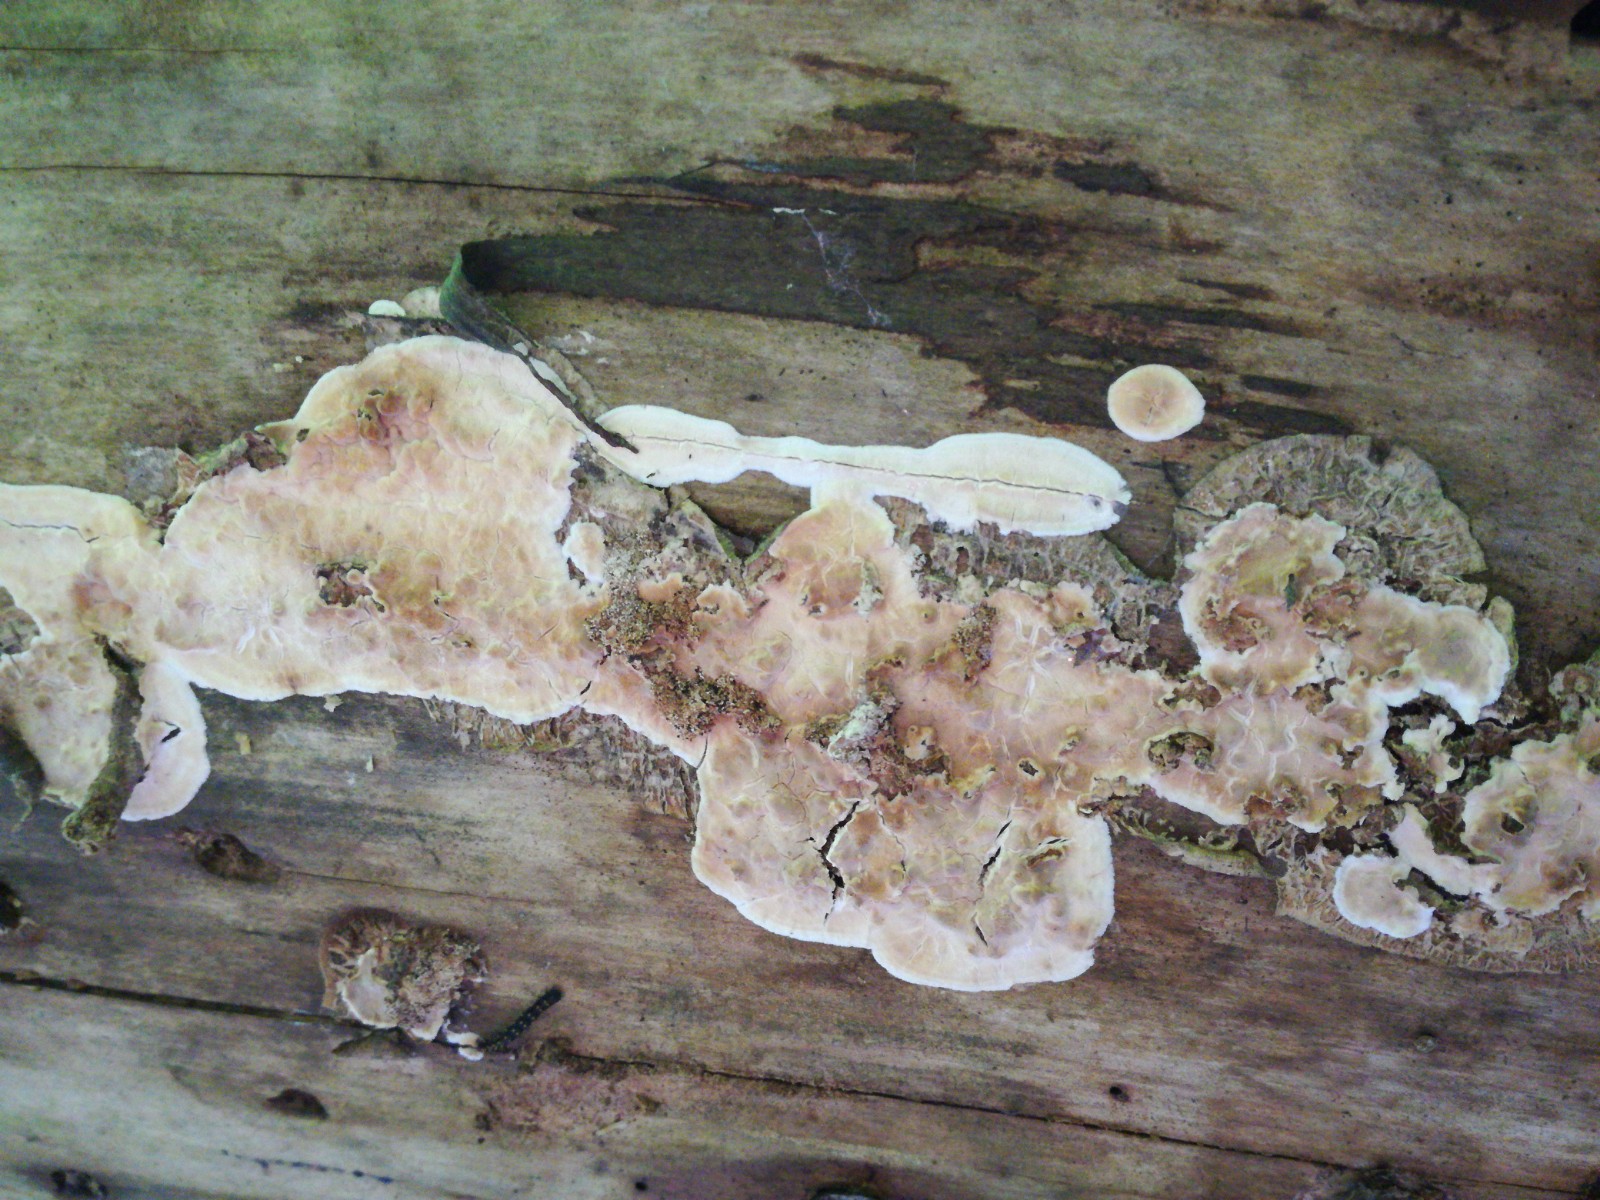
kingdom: Fungi
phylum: Basidiomycota
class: Agaricomycetes
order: Polyporales
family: Dacryobolaceae
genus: Dacryobolus
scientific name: Dacryobolus karstenii
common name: glat vulkanskorpe
